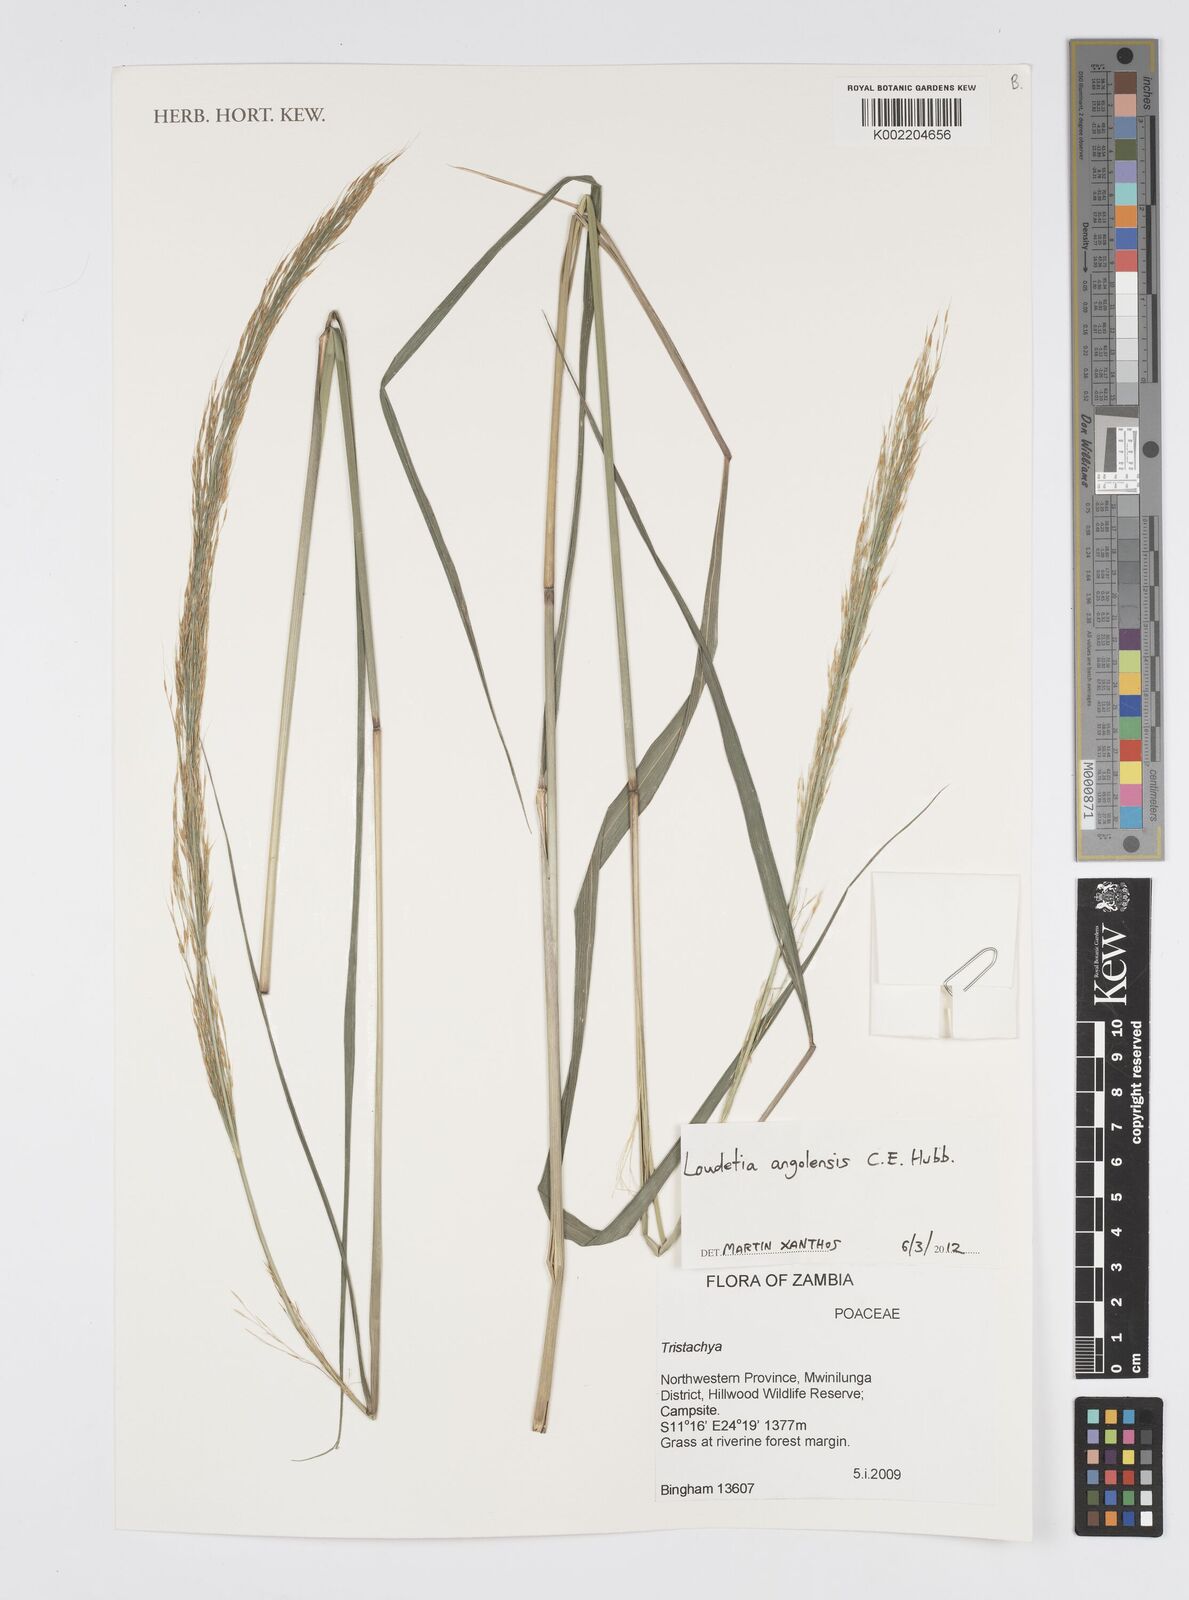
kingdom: Plantae
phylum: Tracheophyta
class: Liliopsida
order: Poales
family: Poaceae
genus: Loudetia
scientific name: Loudetia angolensis
